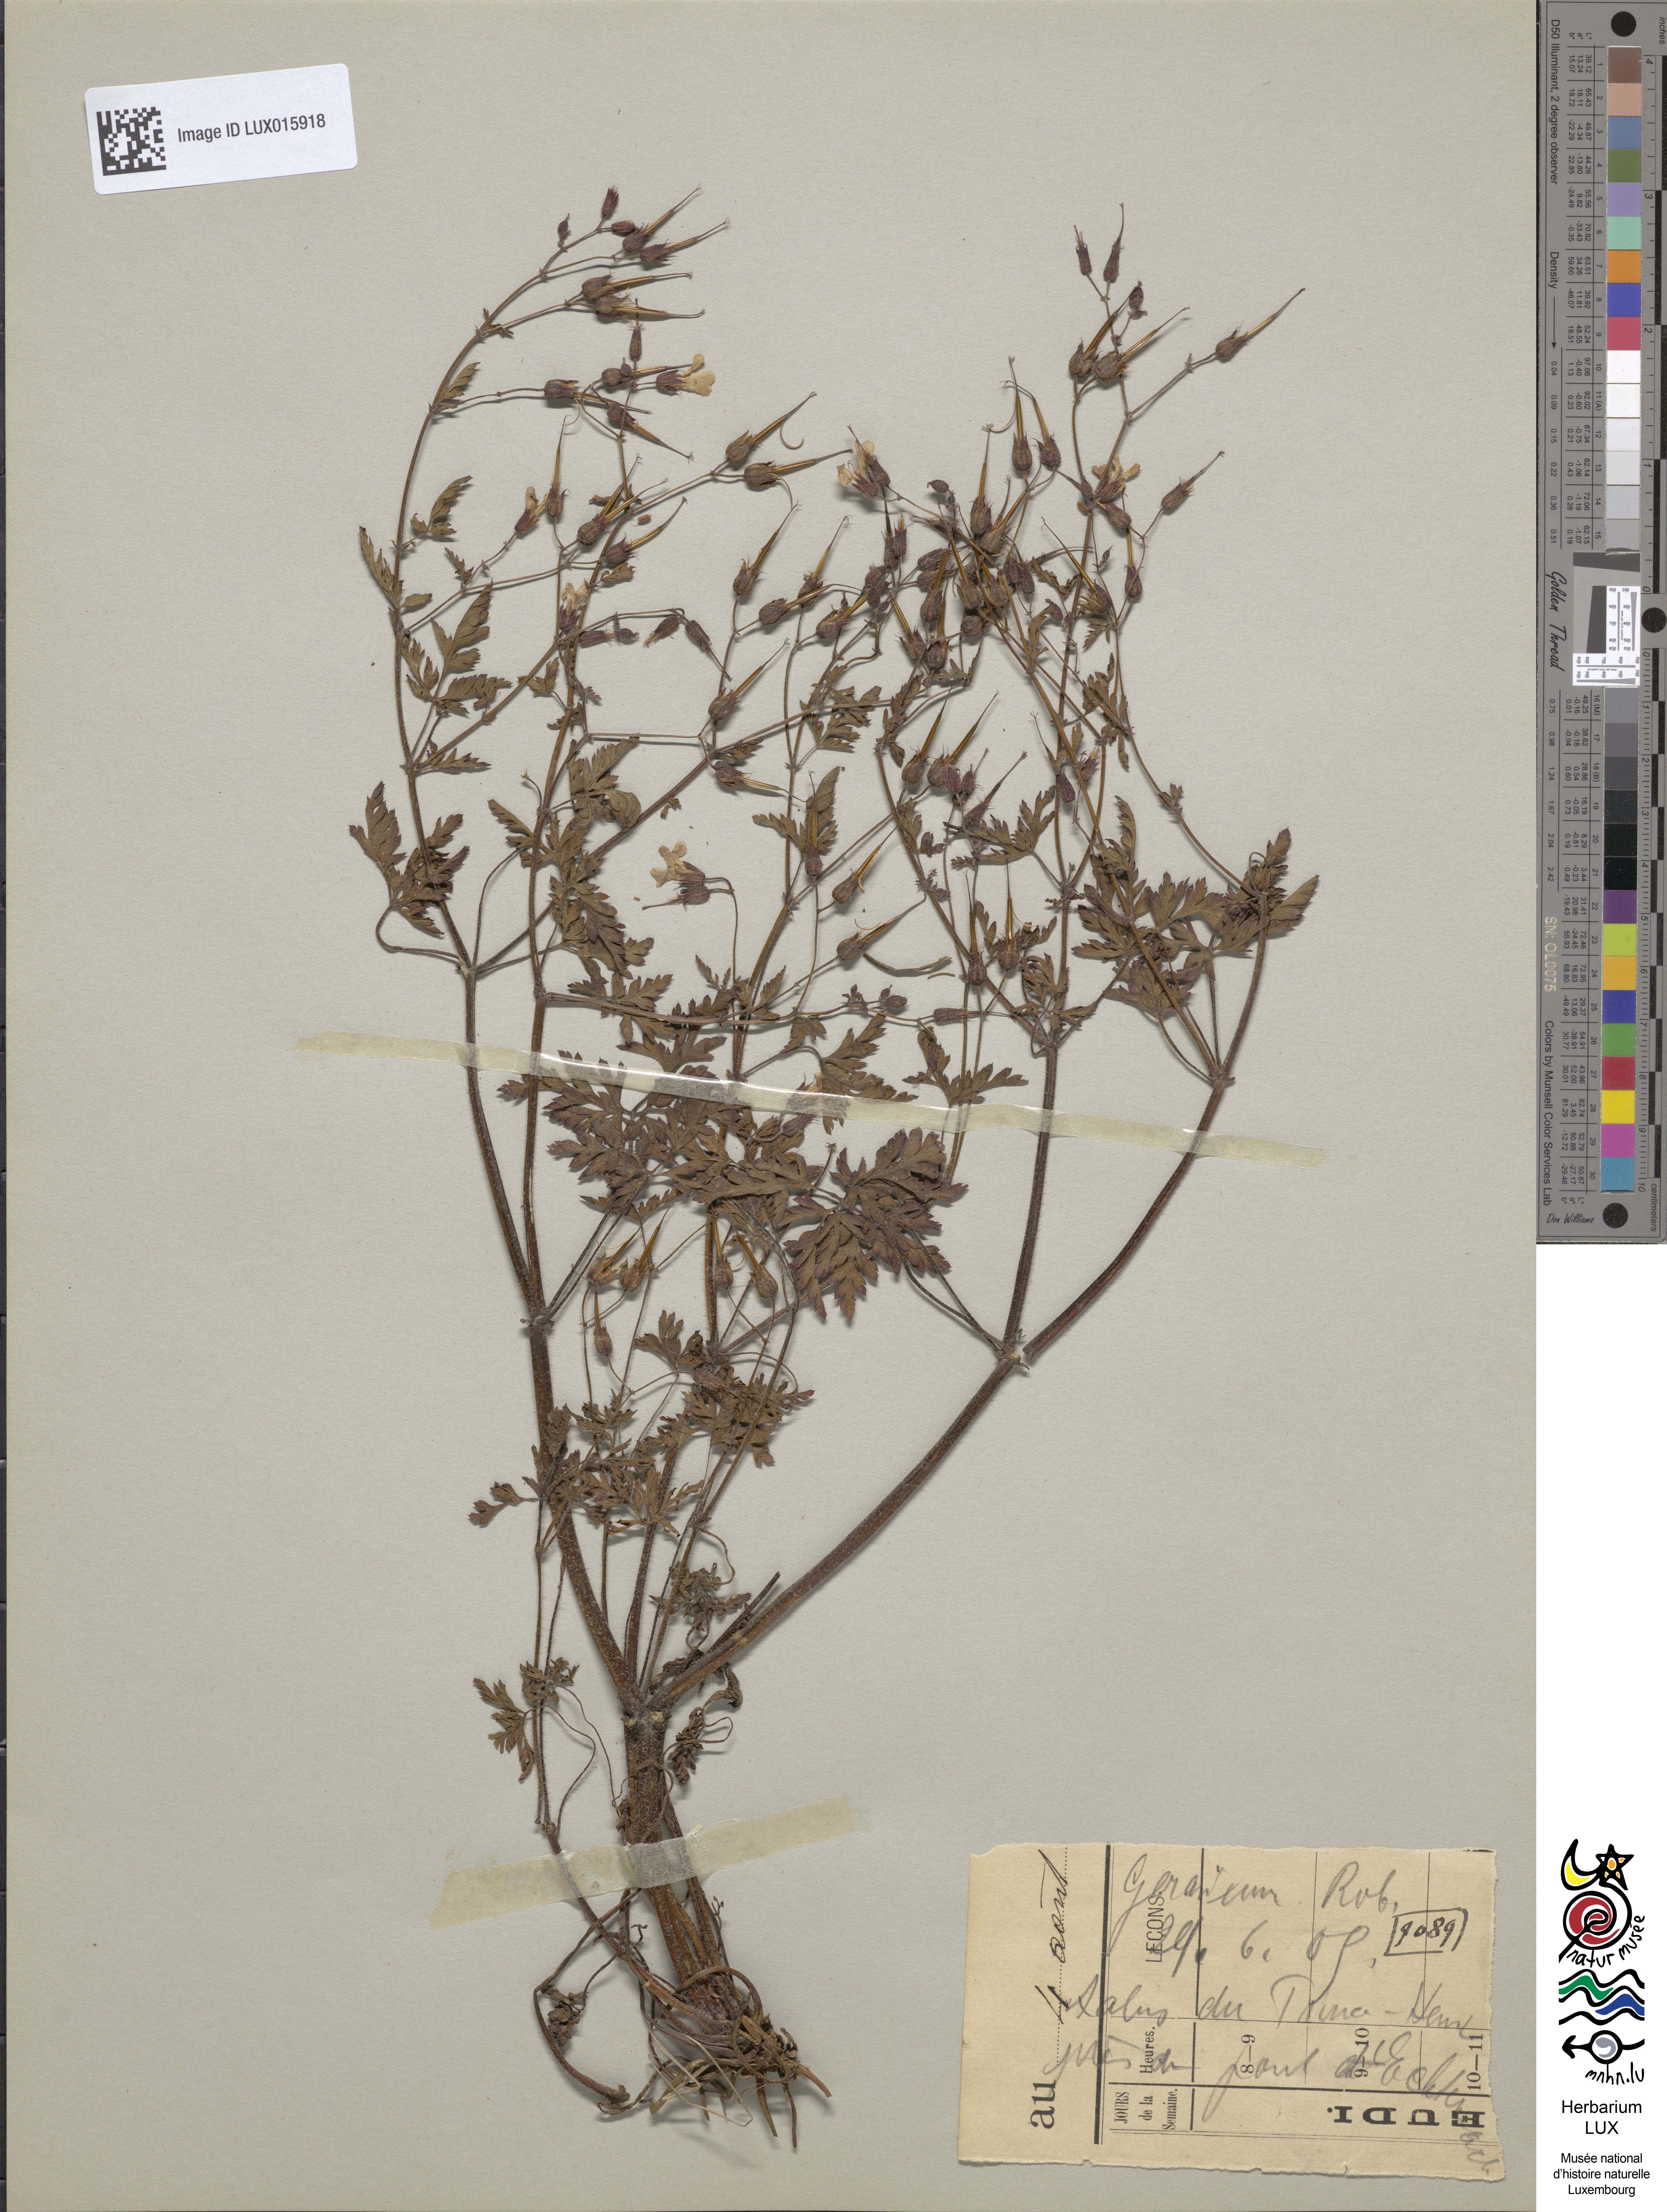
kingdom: Plantae
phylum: Tracheophyta
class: Magnoliopsida
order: Geraniales
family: Geraniaceae
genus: Geranium
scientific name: Geranium robertianum
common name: Herb-robert
